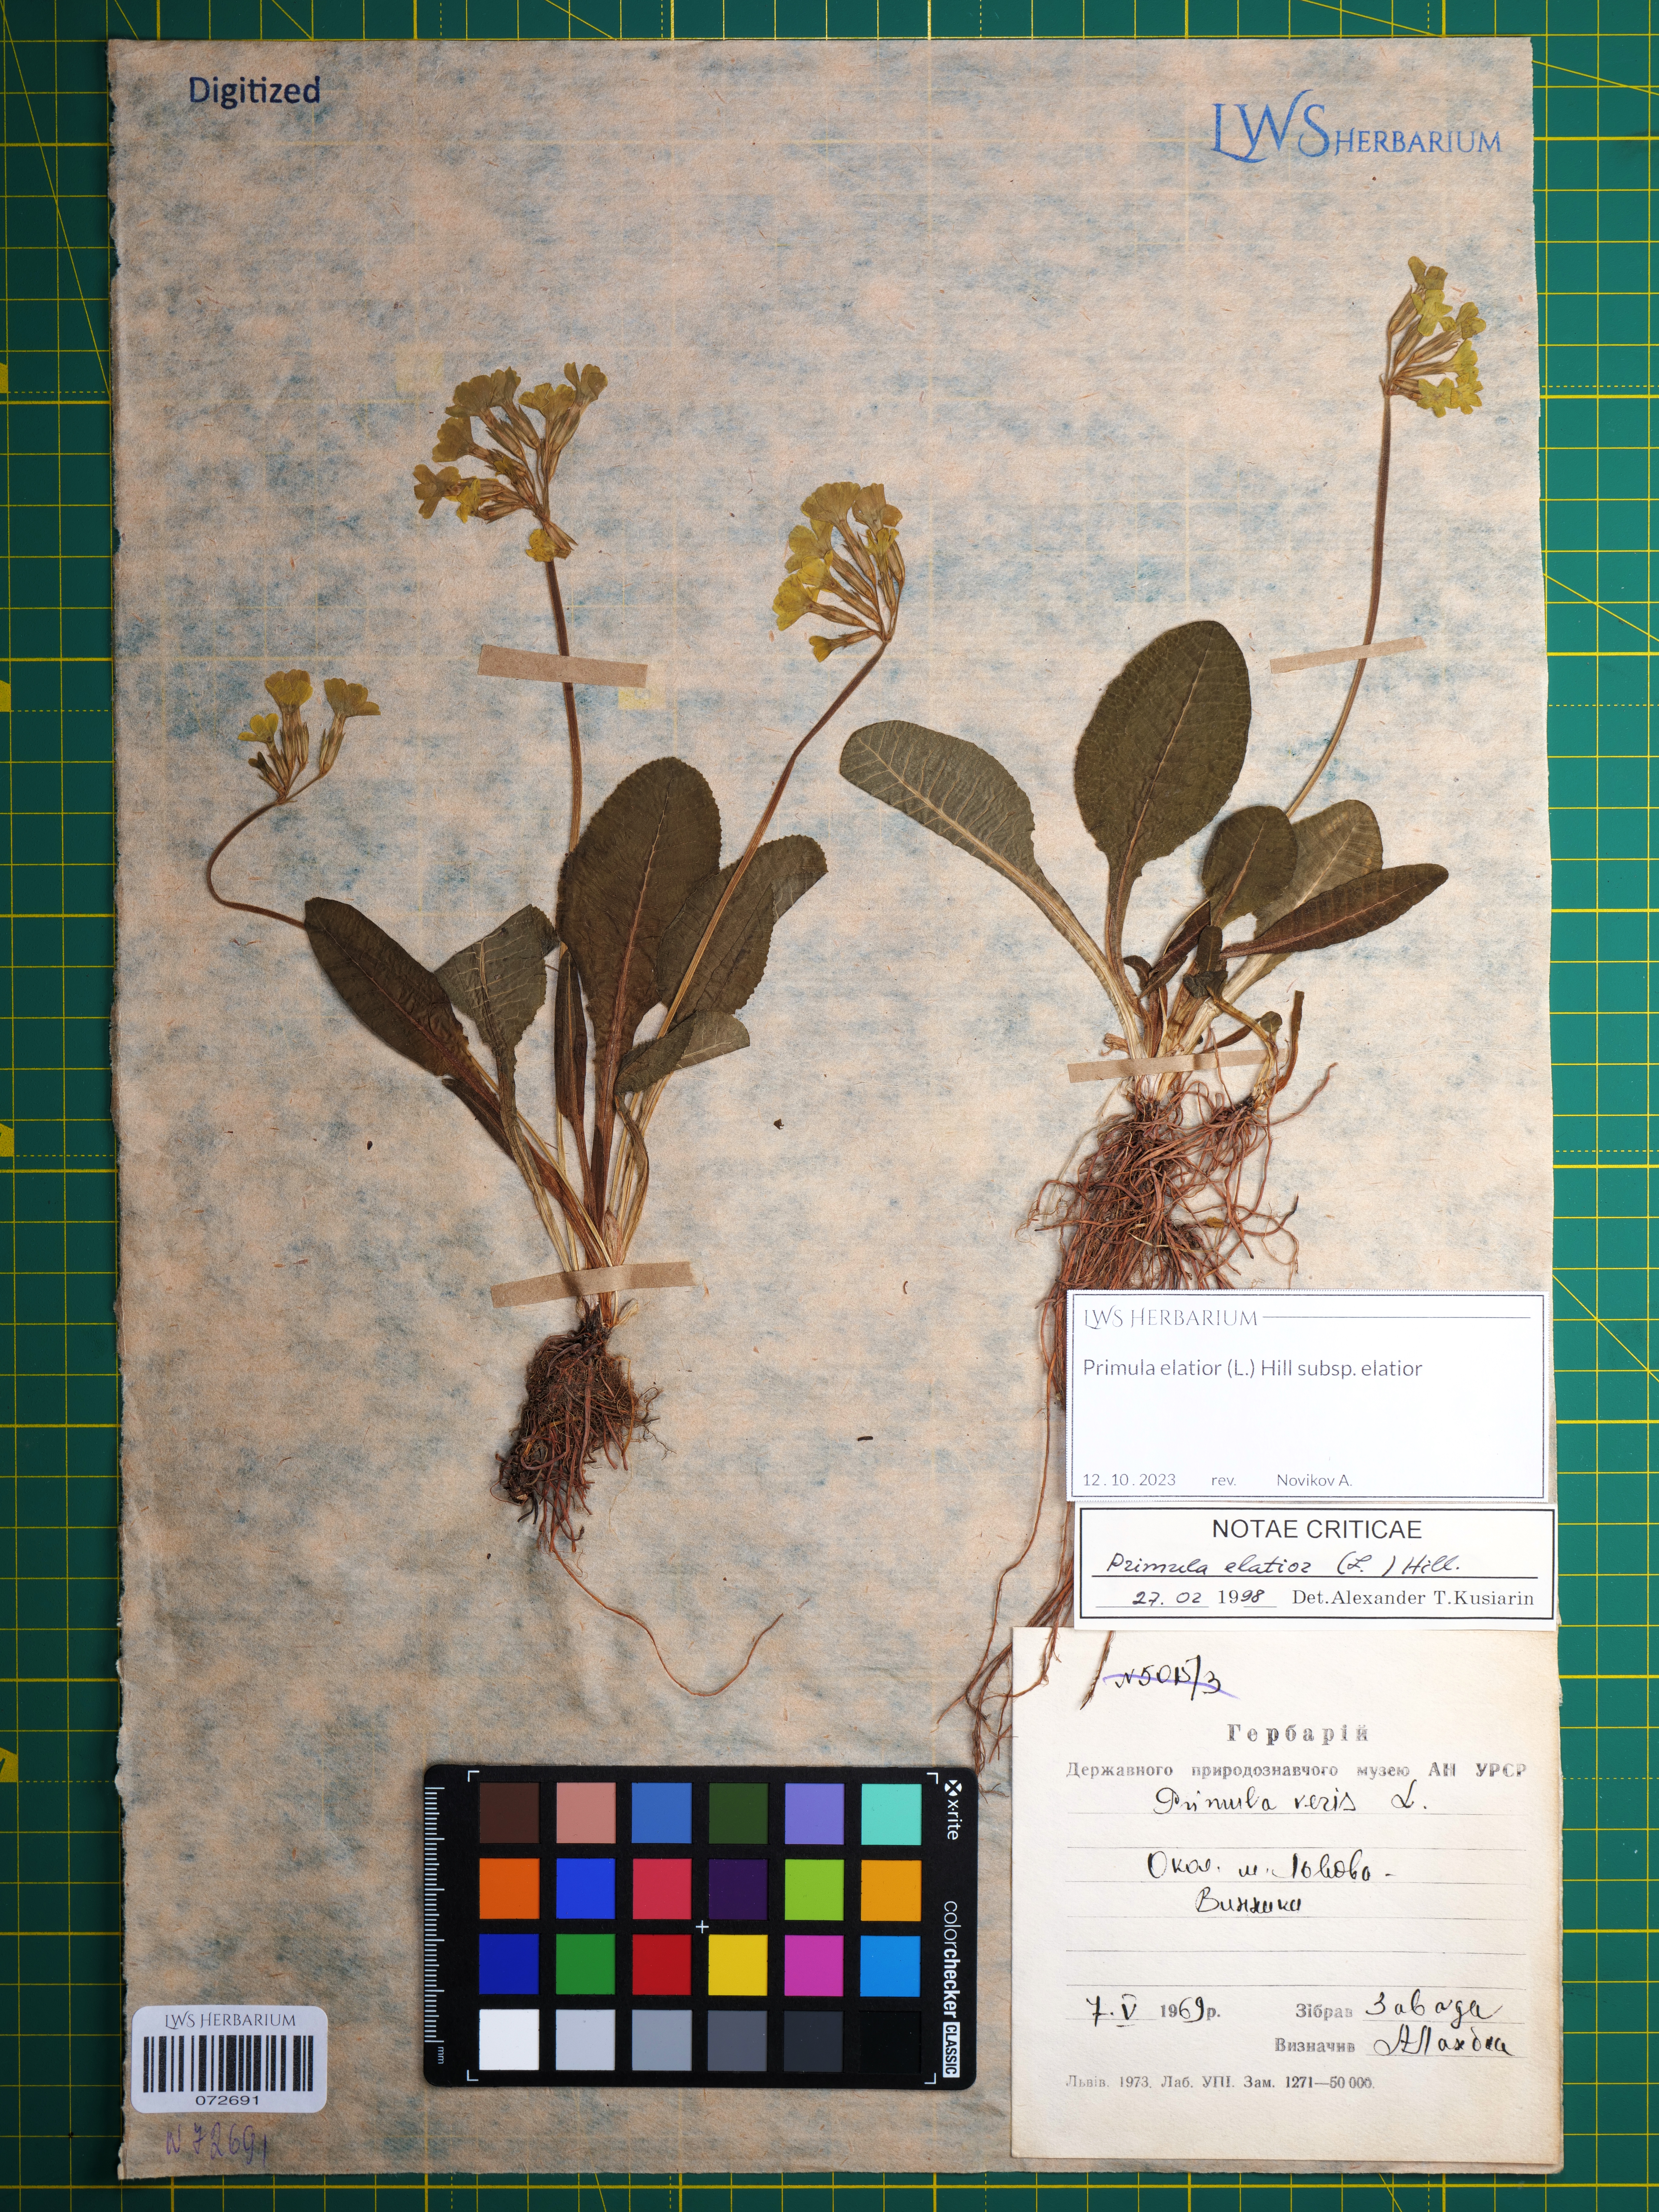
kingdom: Plantae
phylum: Tracheophyta
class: Magnoliopsida
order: Ericales
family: Primulaceae
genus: Primula
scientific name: Primula elatior
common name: Oxlip
